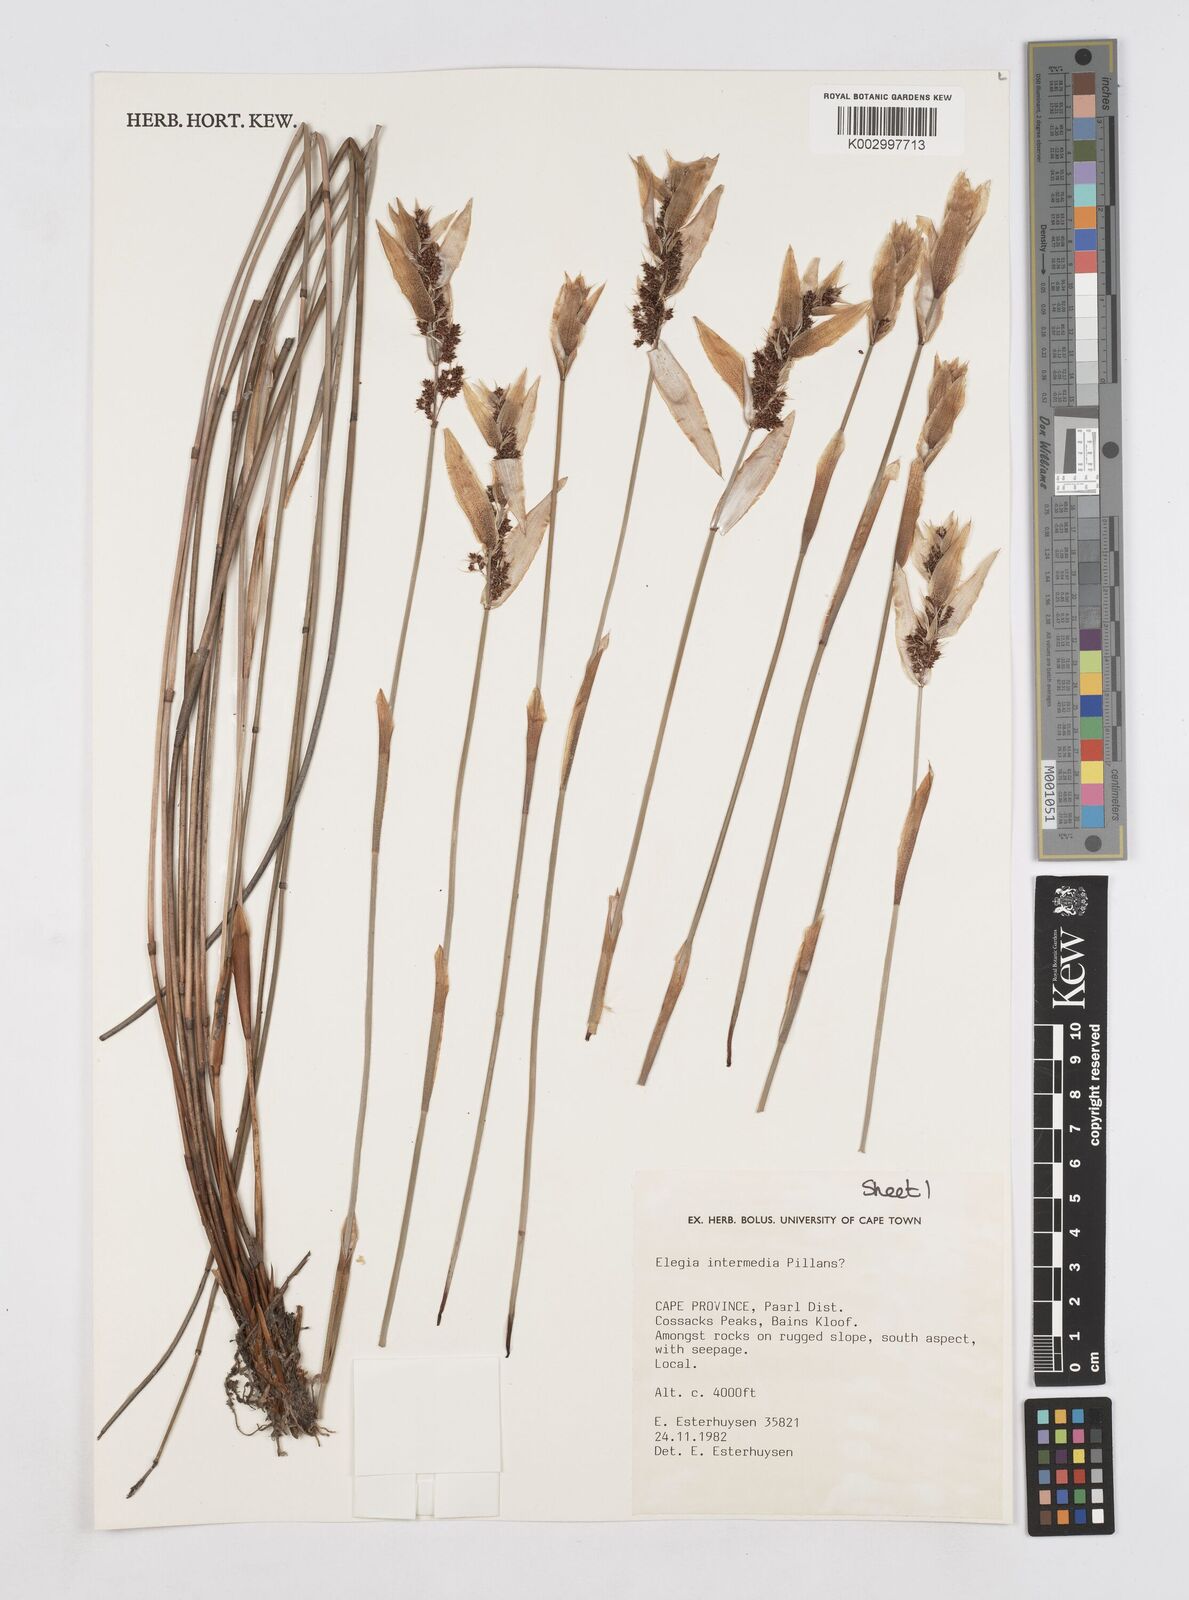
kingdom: Plantae
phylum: Tracheophyta
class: Liliopsida
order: Poales
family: Restionaceae
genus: Elegia
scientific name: Elegia intermedia
